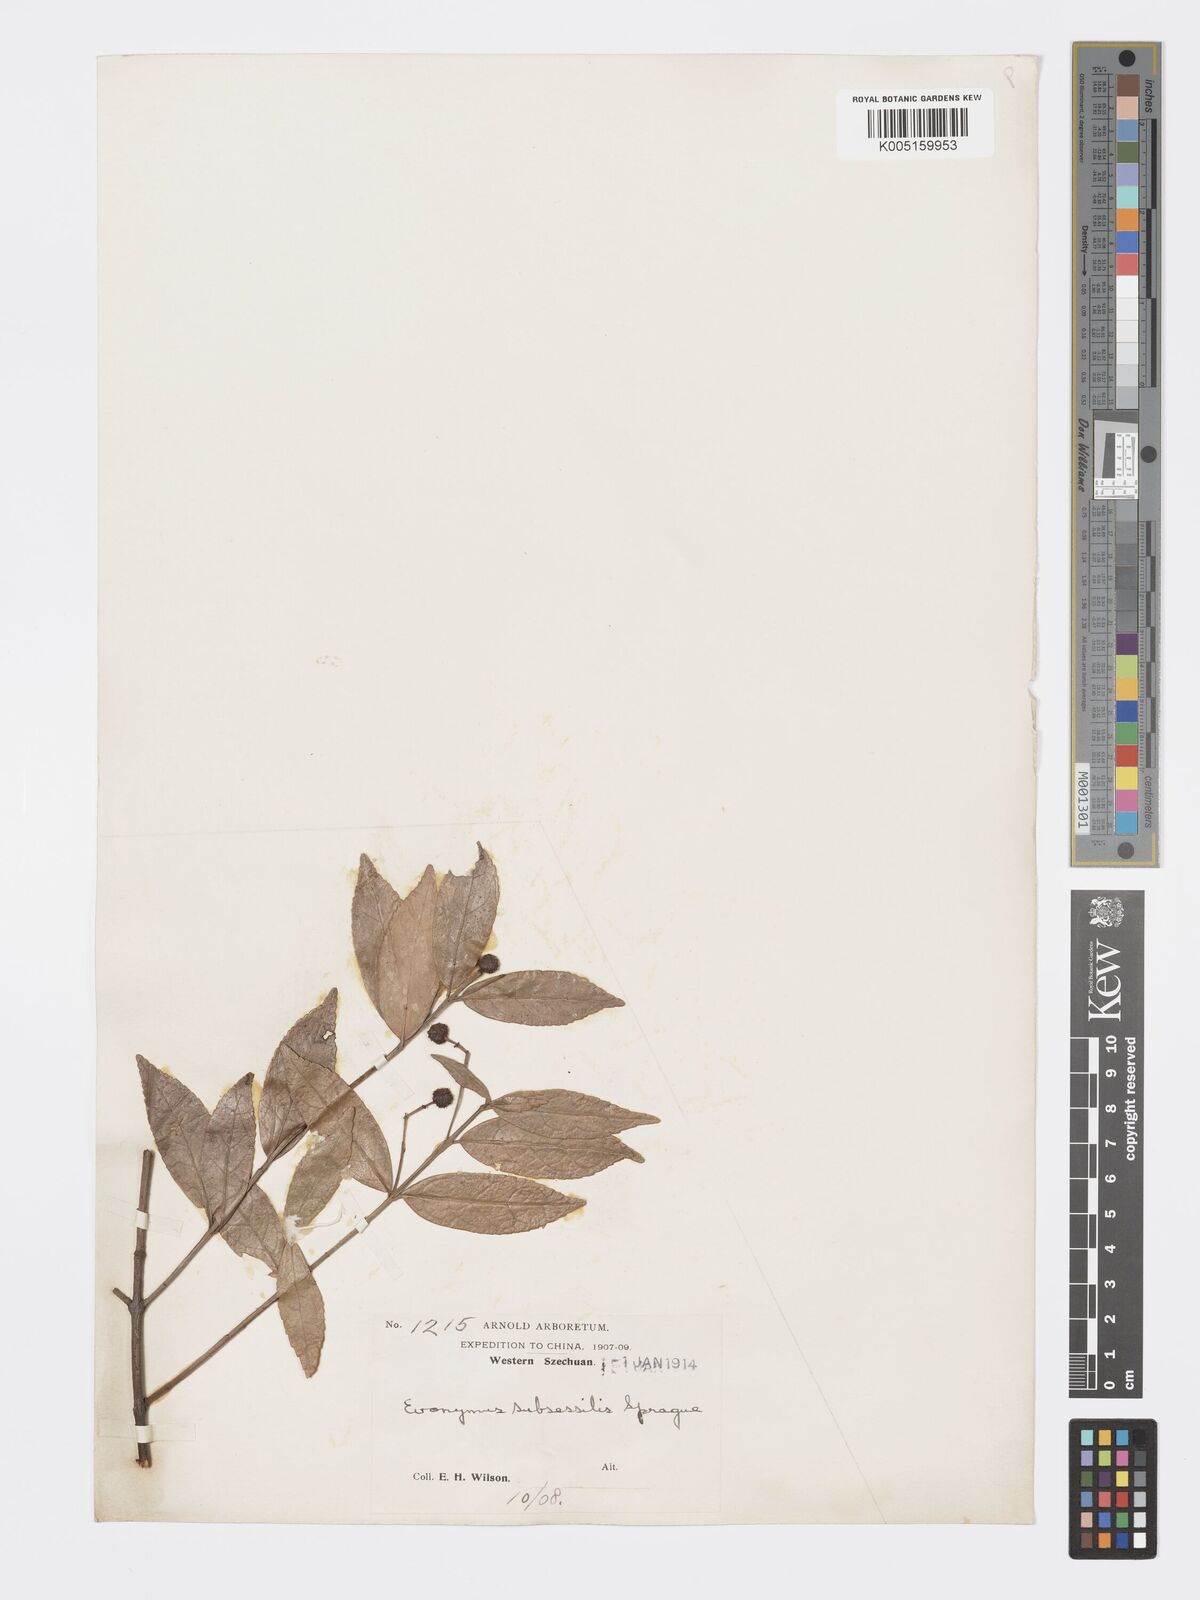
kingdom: Plantae
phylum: Tracheophyta
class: Magnoliopsida
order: Celastrales
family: Celastraceae
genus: Euonymus
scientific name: Euonymus echinatus
